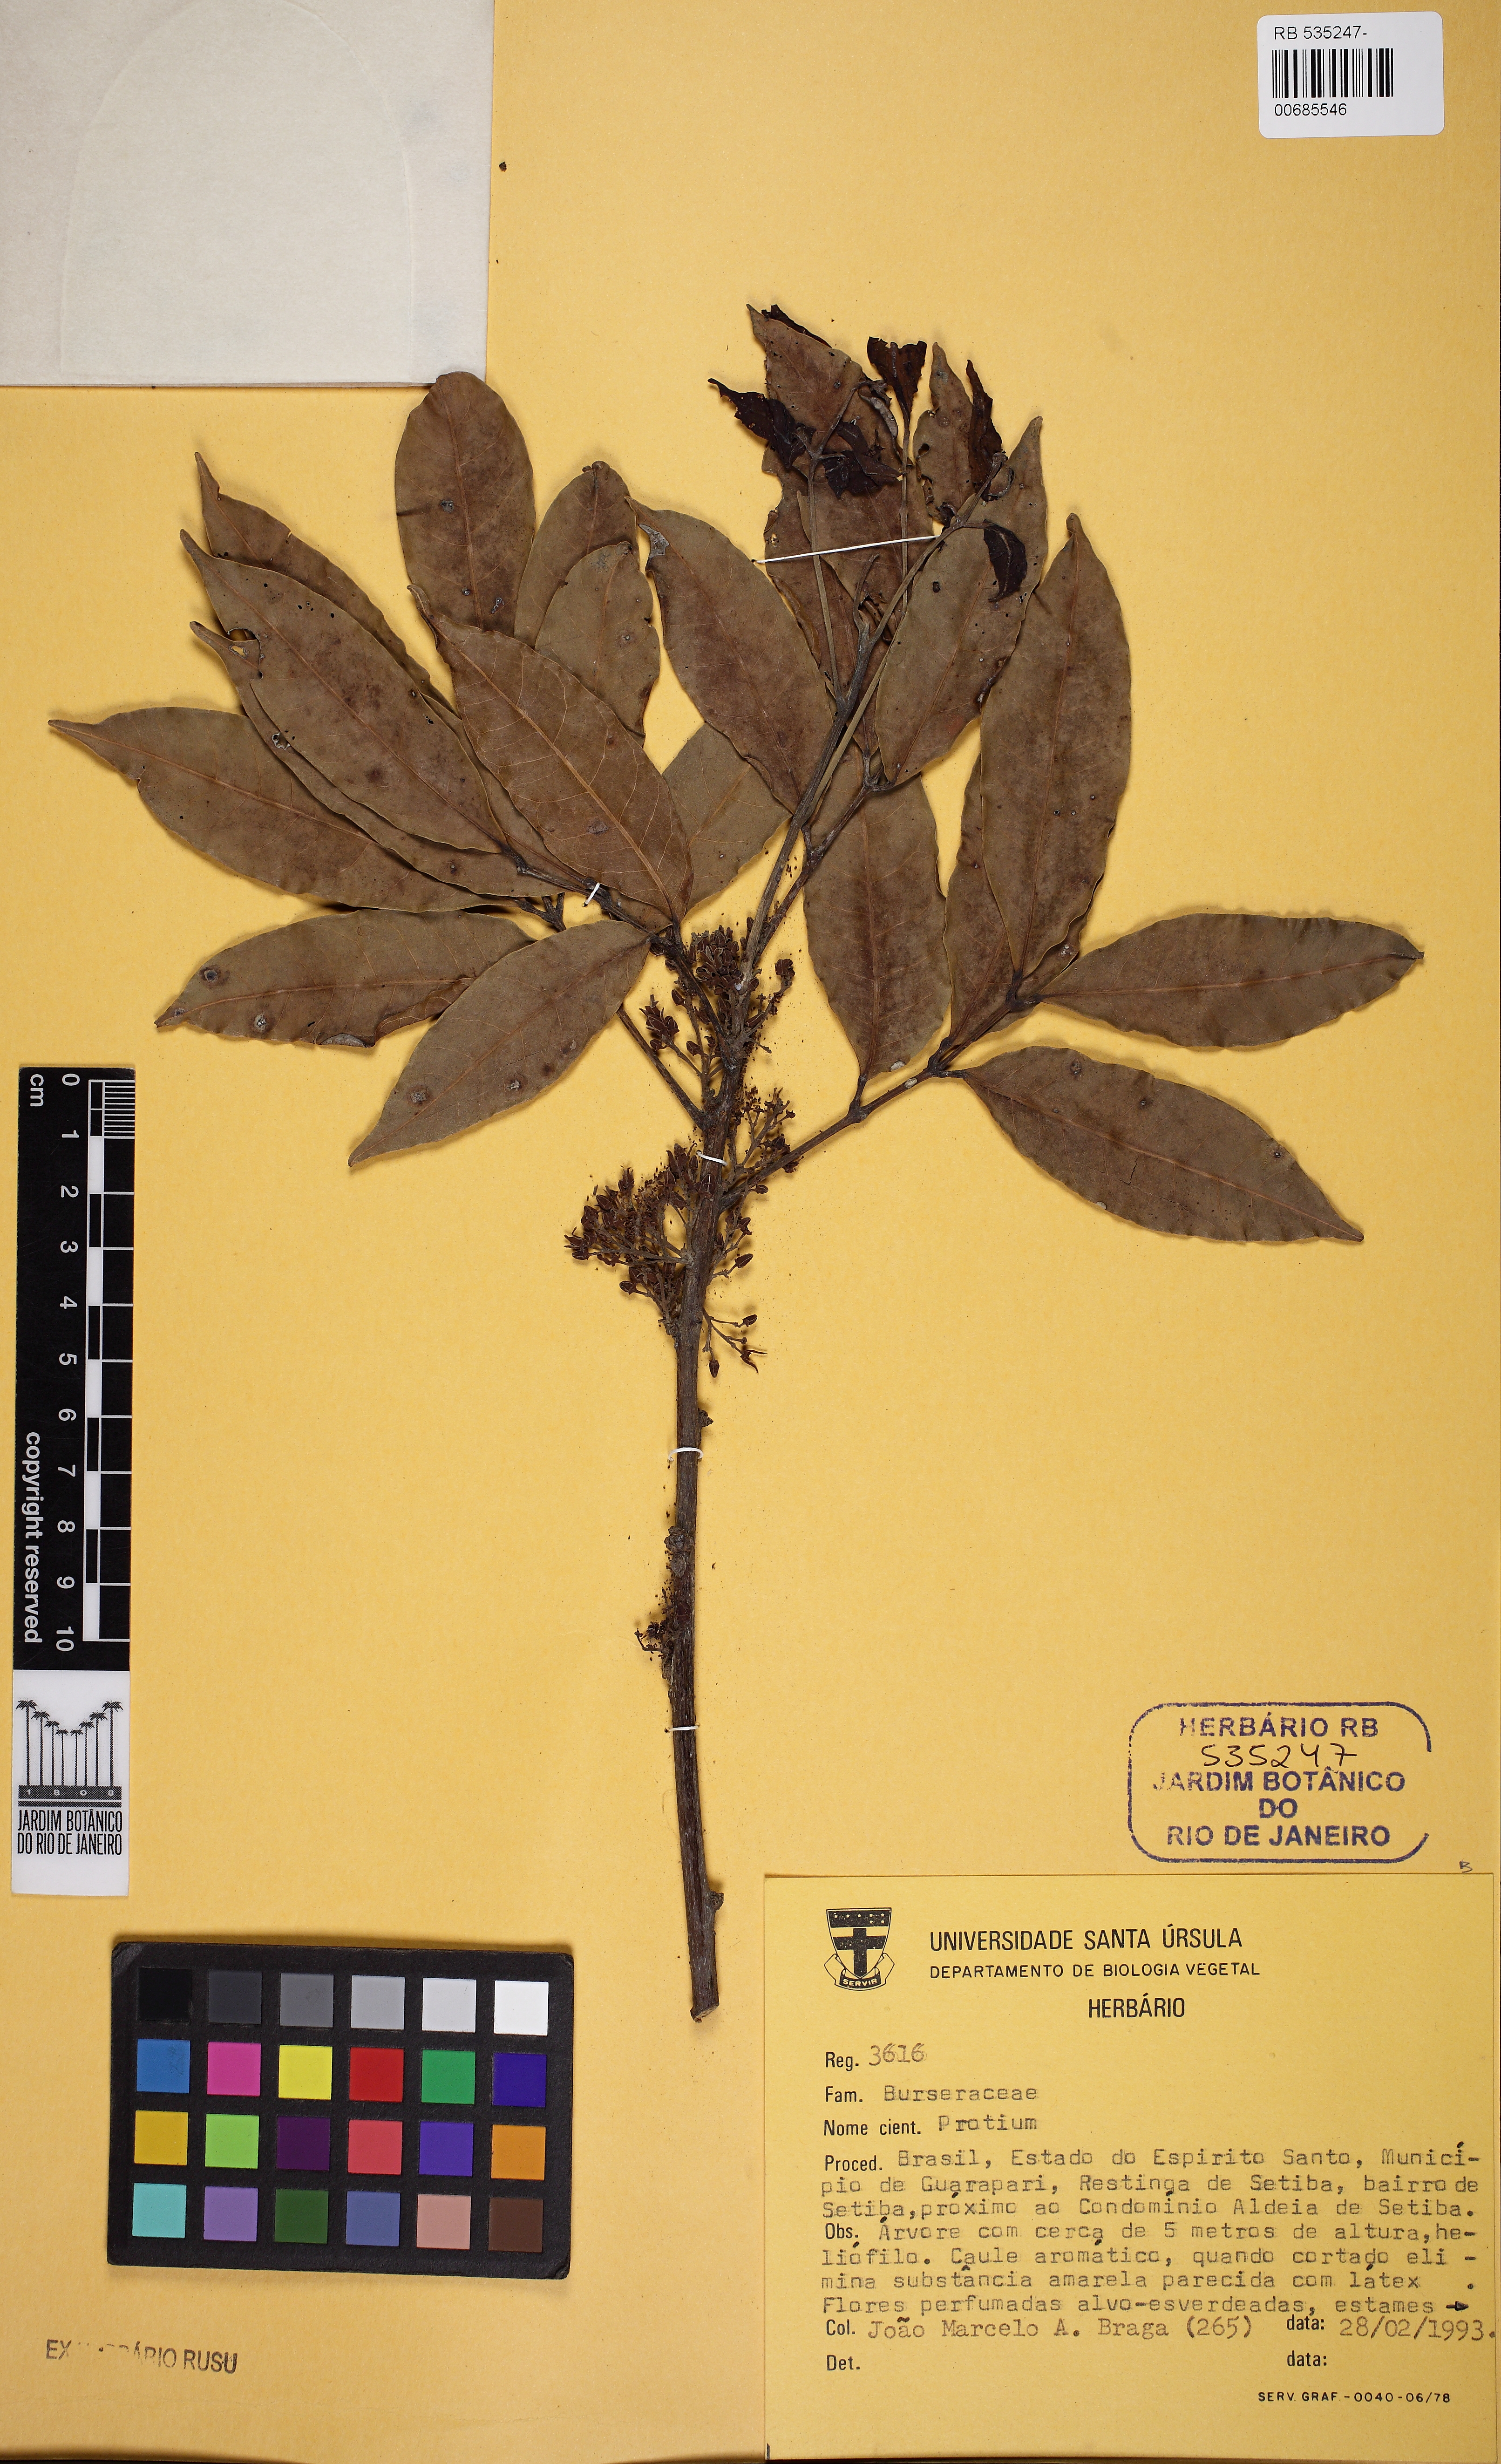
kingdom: Plantae
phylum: Tracheophyta
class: Magnoliopsida
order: Sapindales
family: Burseraceae
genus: Protium
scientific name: Protium heptaphyllum
